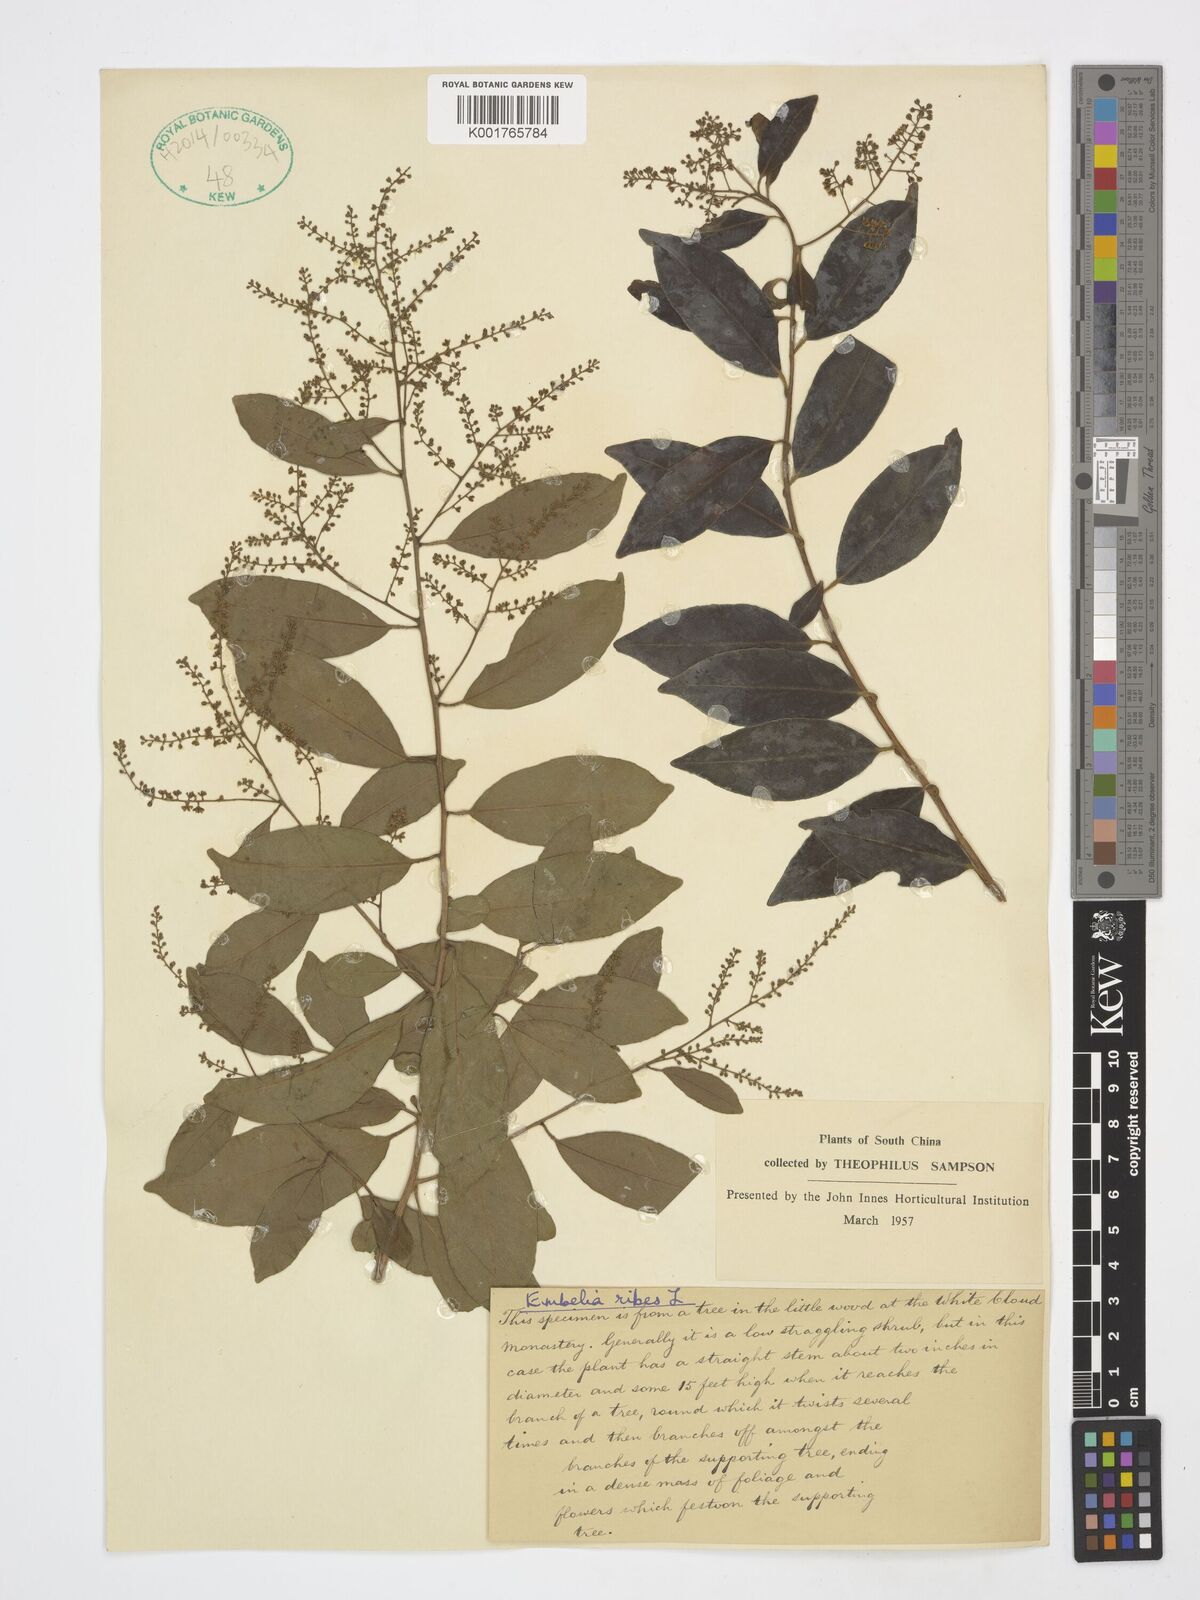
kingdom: Plantae
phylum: Tracheophyta
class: Magnoliopsida
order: Ericales
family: Primulaceae
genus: Embelia
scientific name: Embelia ribes
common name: Vidanga
